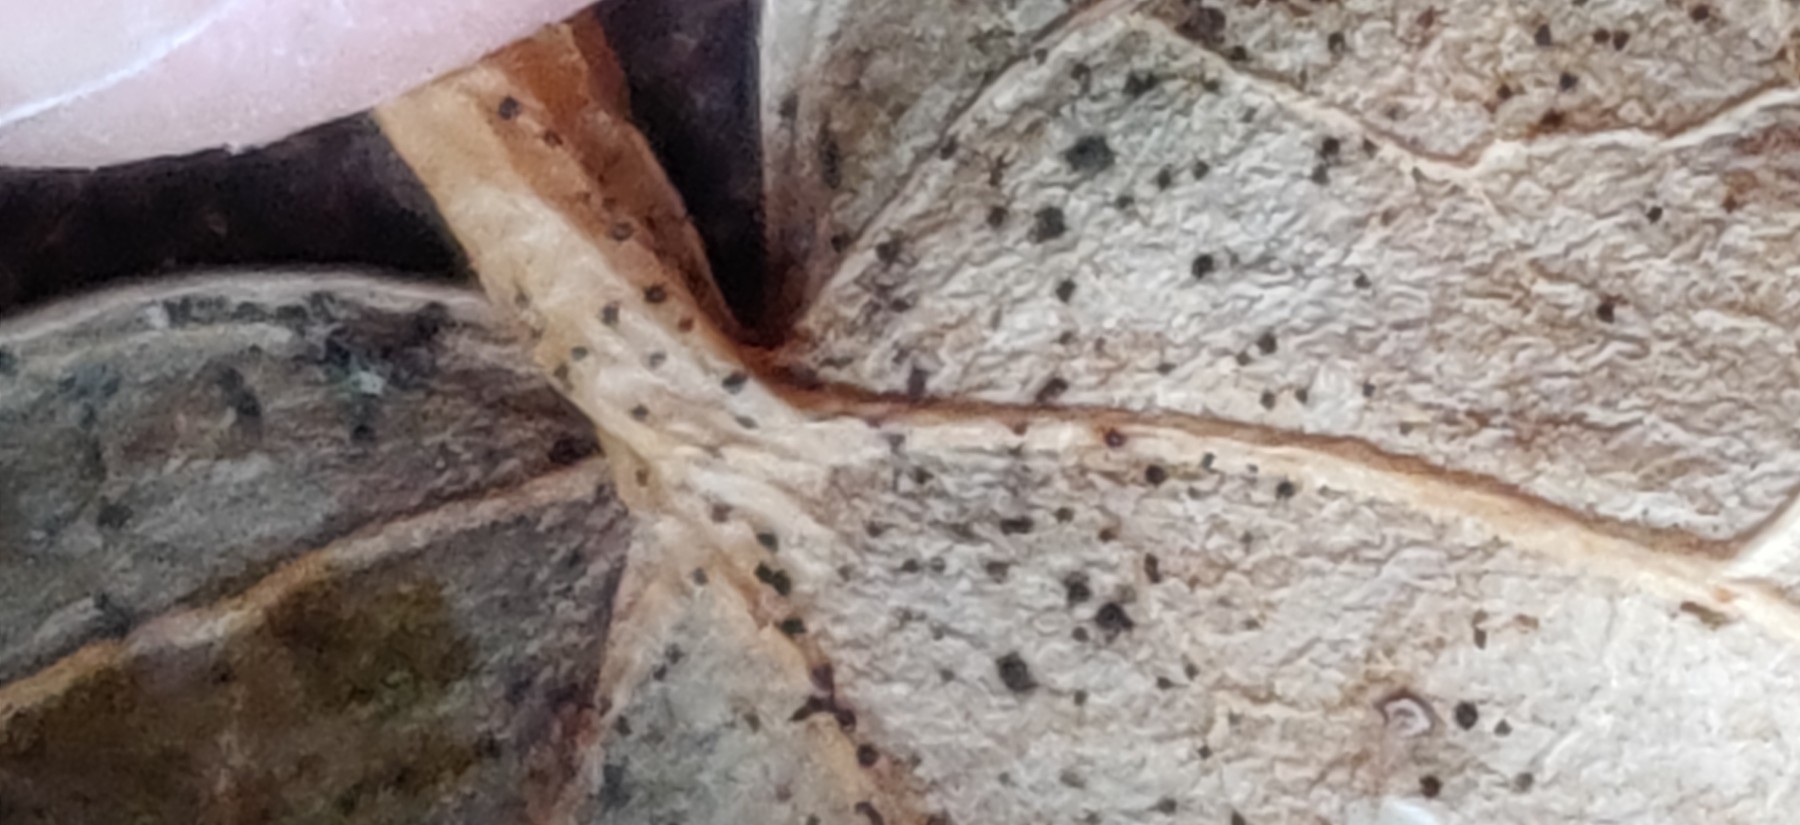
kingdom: Fungi
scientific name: Fungi
